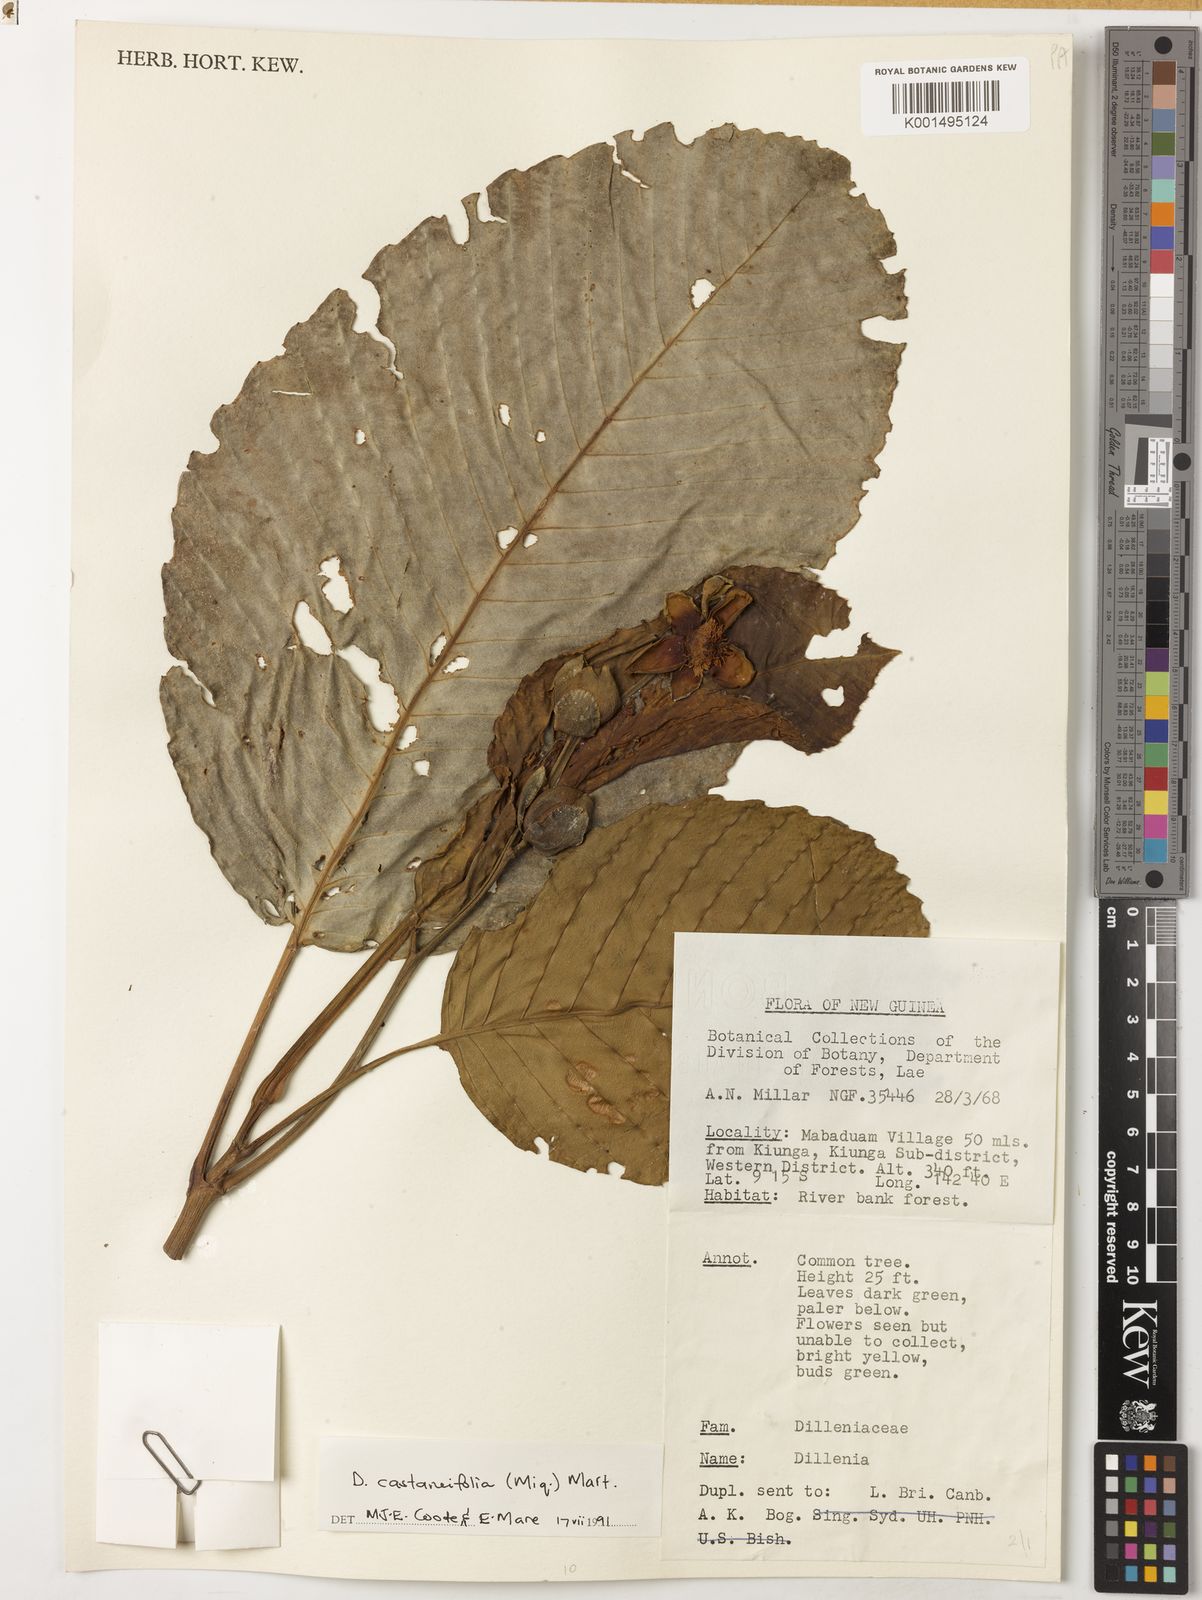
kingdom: Plantae
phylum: Tracheophyta
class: Magnoliopsida
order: Dilleniales
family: Dilleniaceae
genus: Dillenia
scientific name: Dillenia castaneifolia
